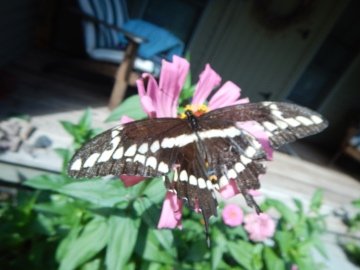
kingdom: Animalia
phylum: Arthropoda
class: Insecta
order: Lepidoptera
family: Papilionidae
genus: Papilio
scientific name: Papilio cresphontes
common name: Eastern Giant Swallowtail
